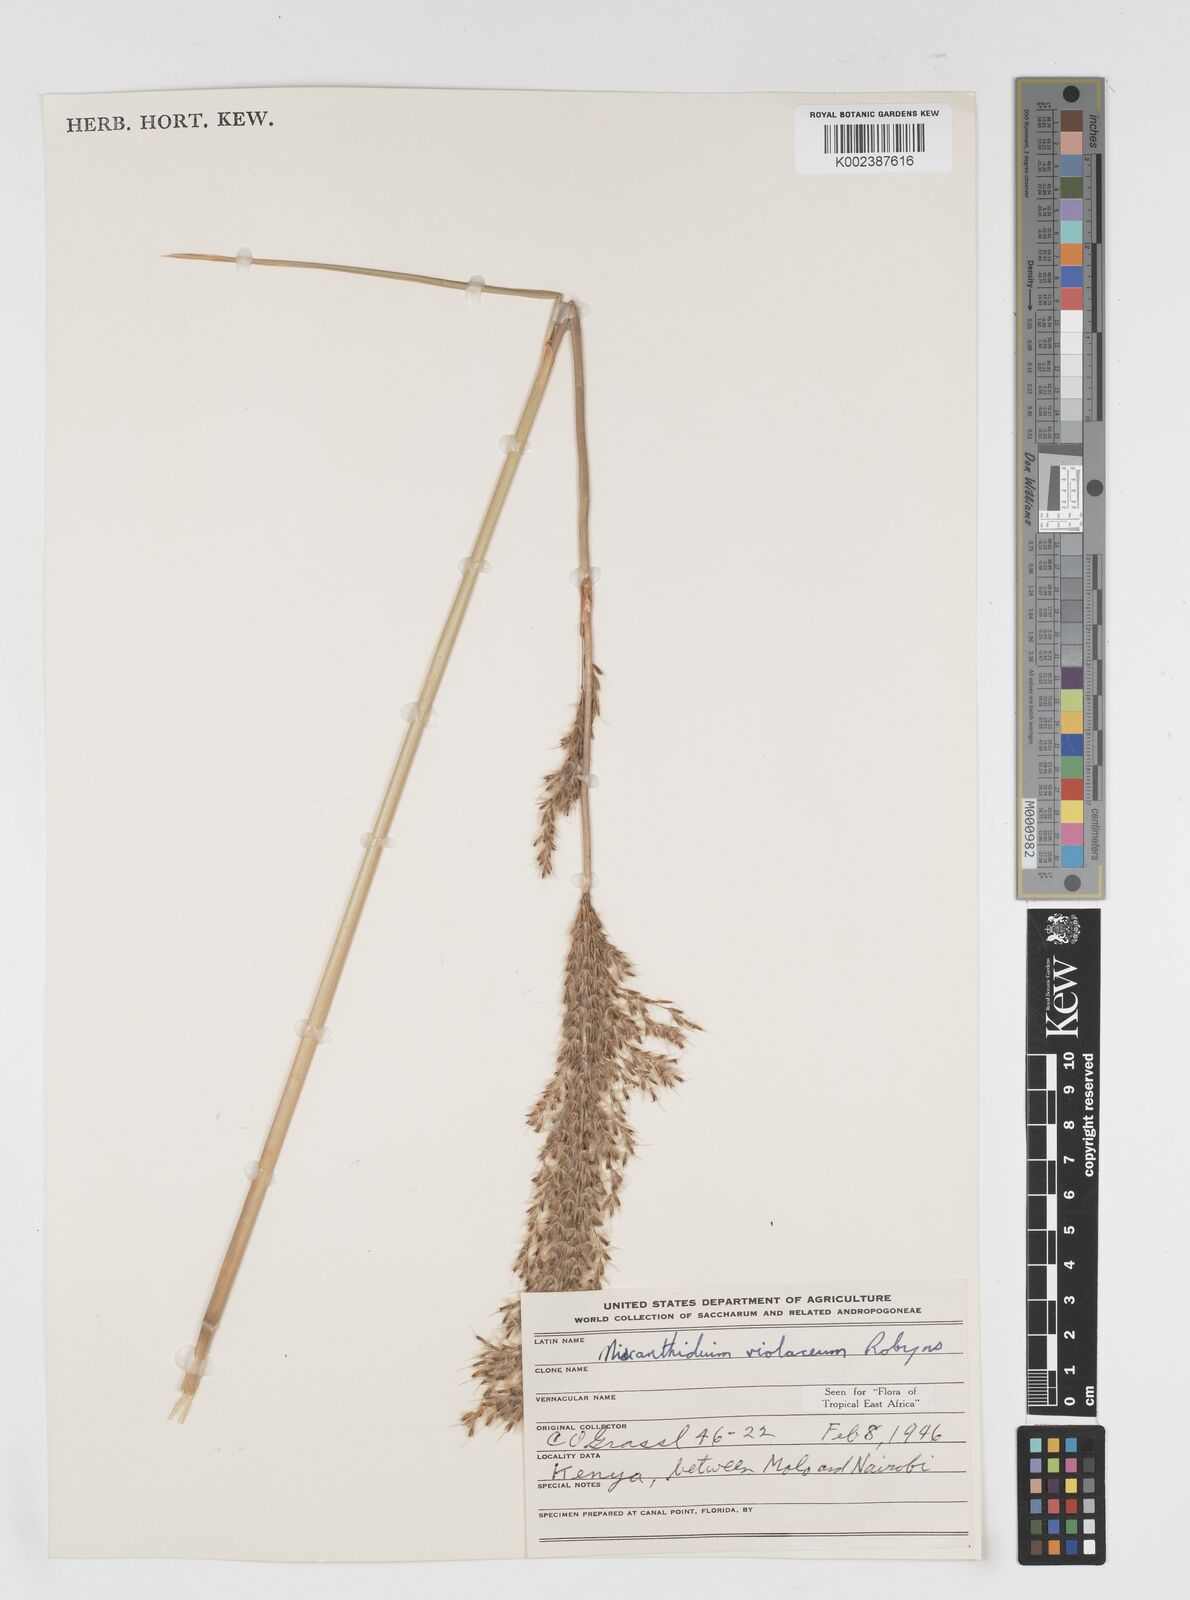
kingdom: Plantae
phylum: Tracheophyta
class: Liliopsida
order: Poales
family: Poaceae
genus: Miscanthidium
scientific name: Miscanthidium violaceum
